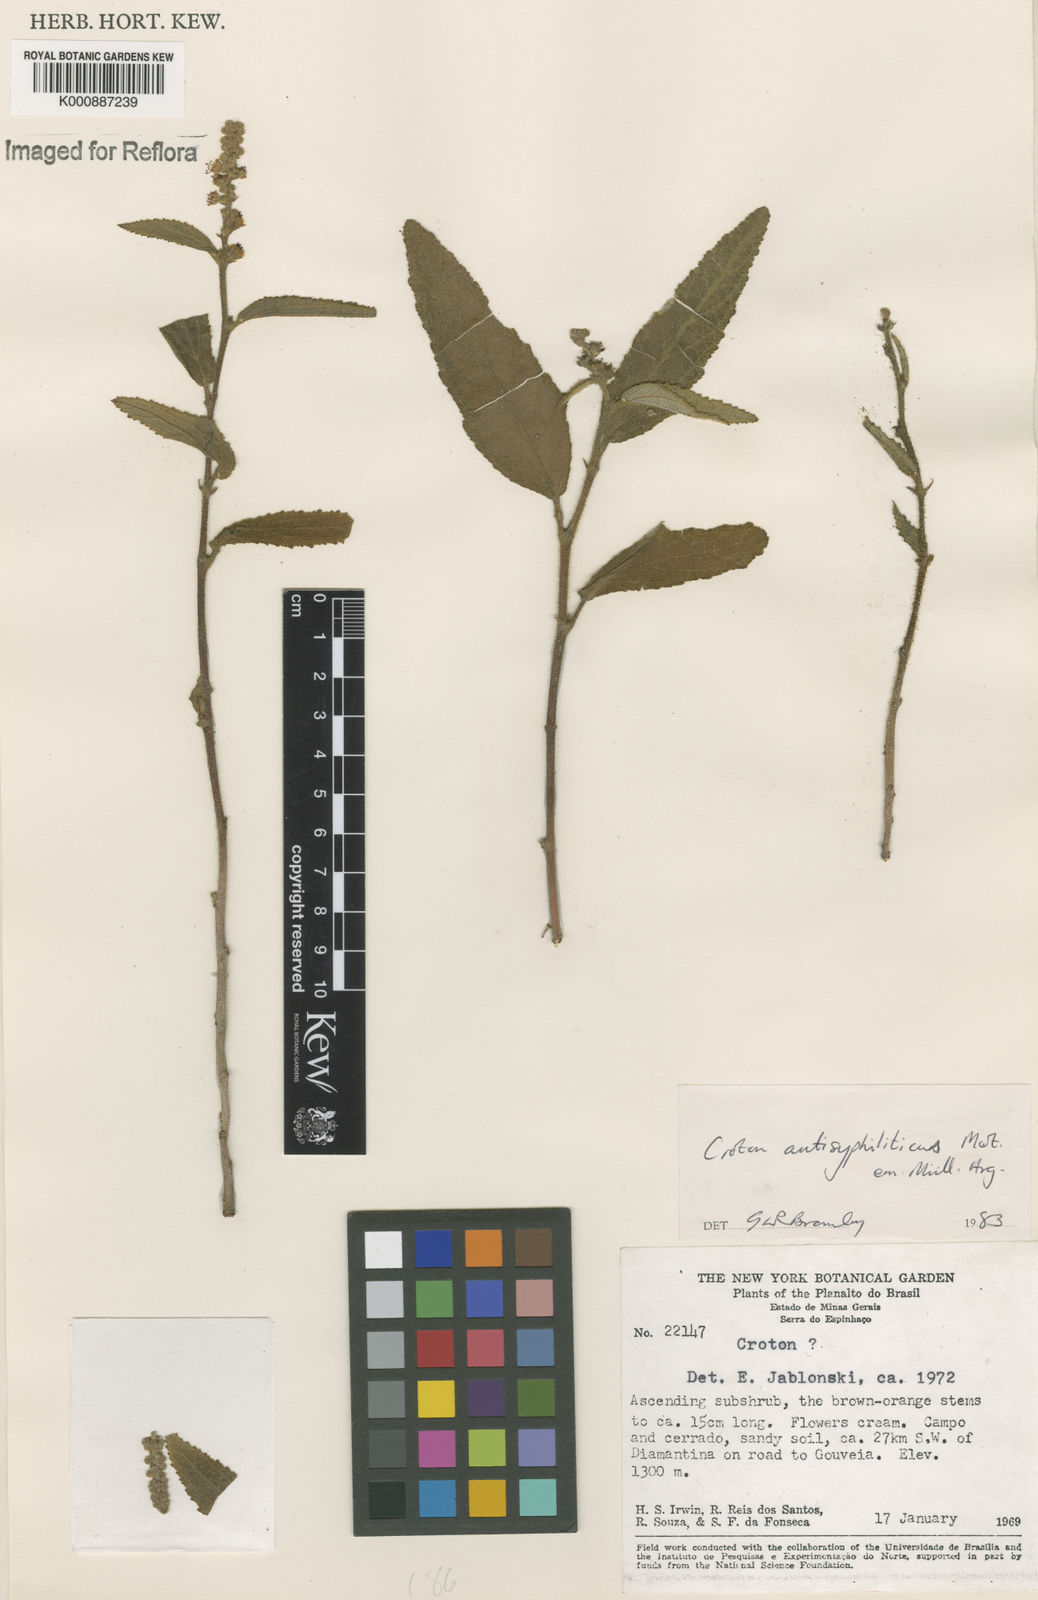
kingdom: Plantae
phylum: Tracheophyta
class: Magnoliopsida
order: Malpighiales
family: Euphorbiaceae
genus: Croton
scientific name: Croton antisyphiliticus
